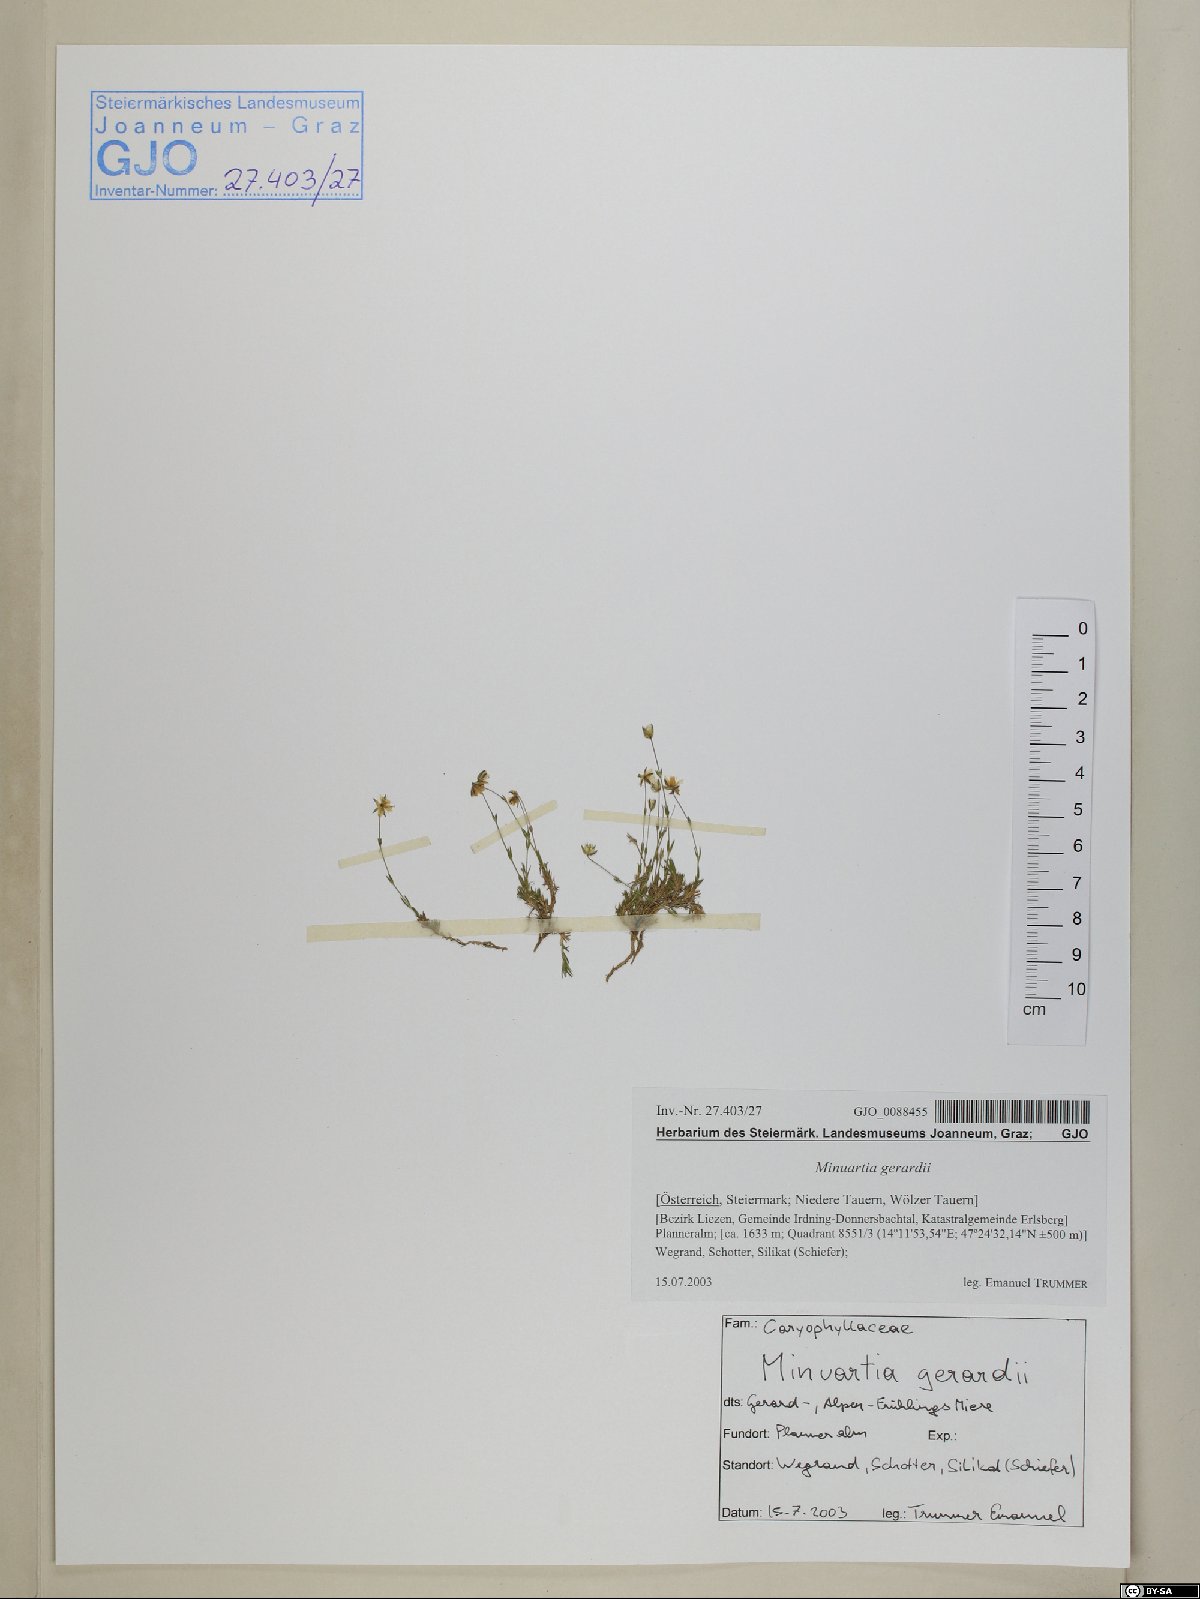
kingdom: Plantae
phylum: Tracheophyta
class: Magnoliopsida
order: Caryophyllales
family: Caryophyllaceae
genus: Sabulina
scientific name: Sabulina verna
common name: Spring sandwort
